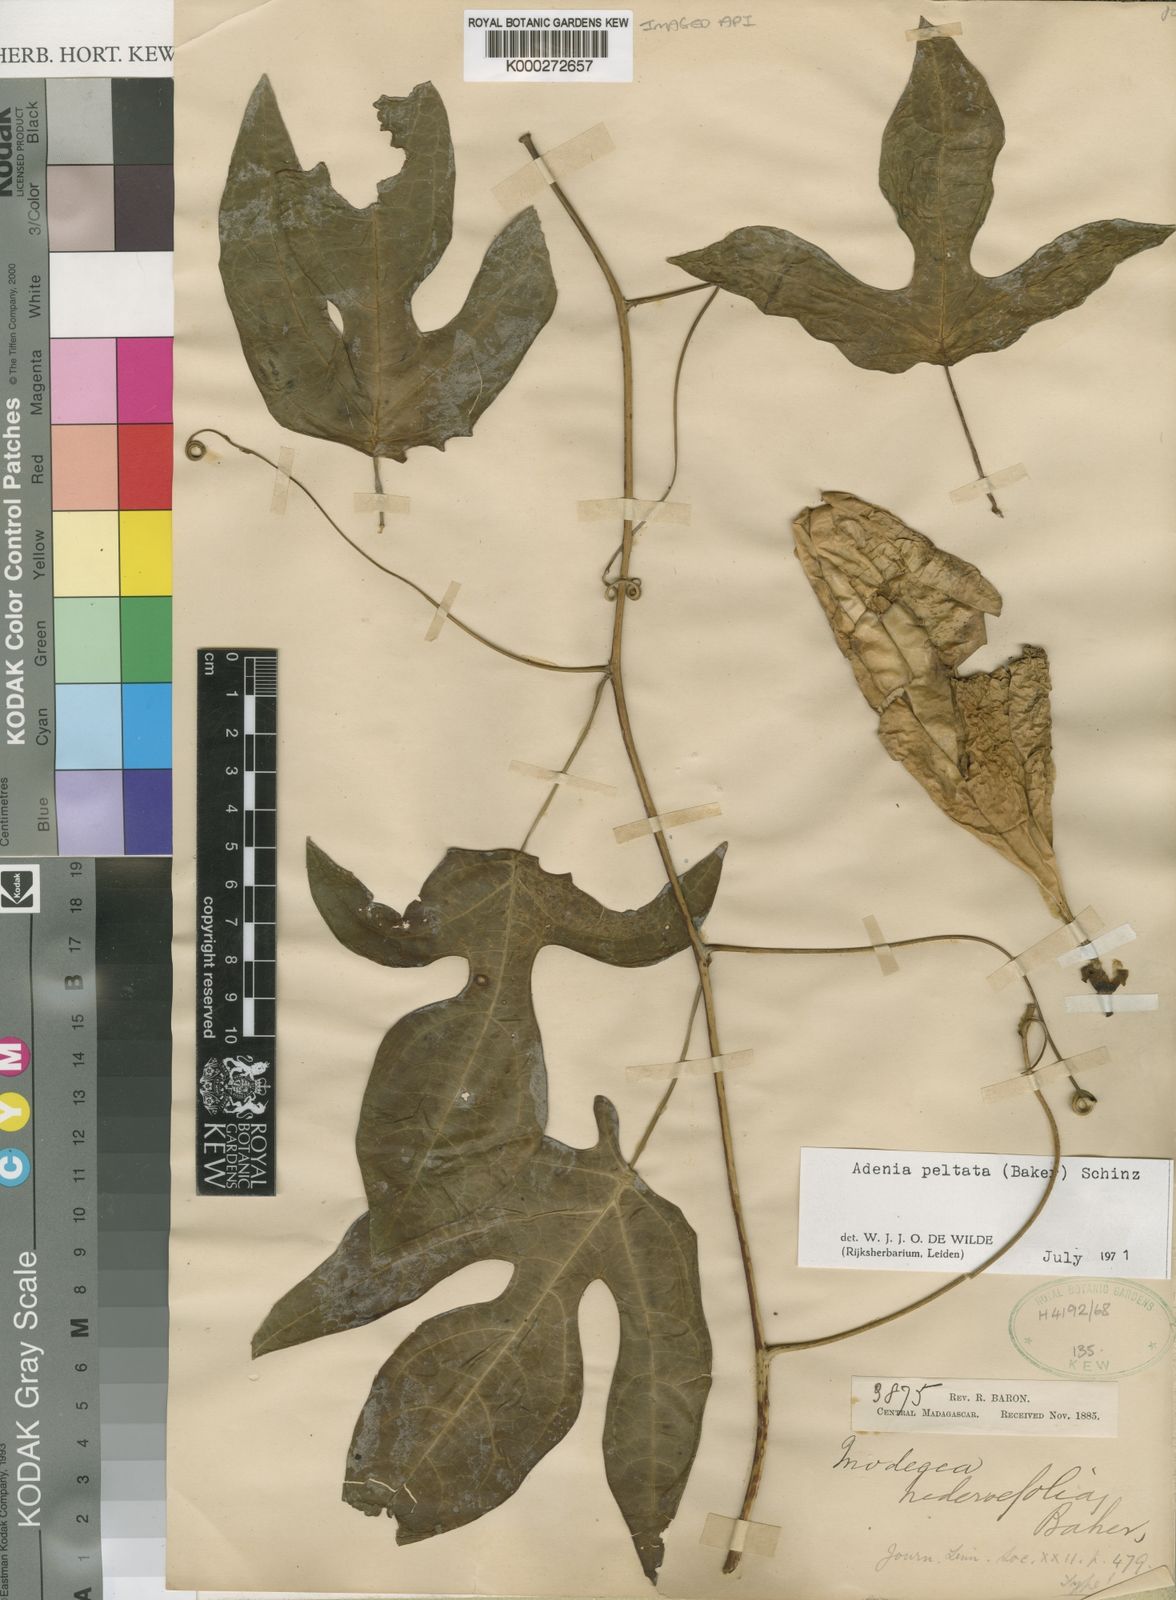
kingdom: Plantae
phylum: Tracheophyta
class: Magnoliopsida
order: Malpighiales
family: Passifloraceae
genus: Adenia
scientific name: Adenia peltata
